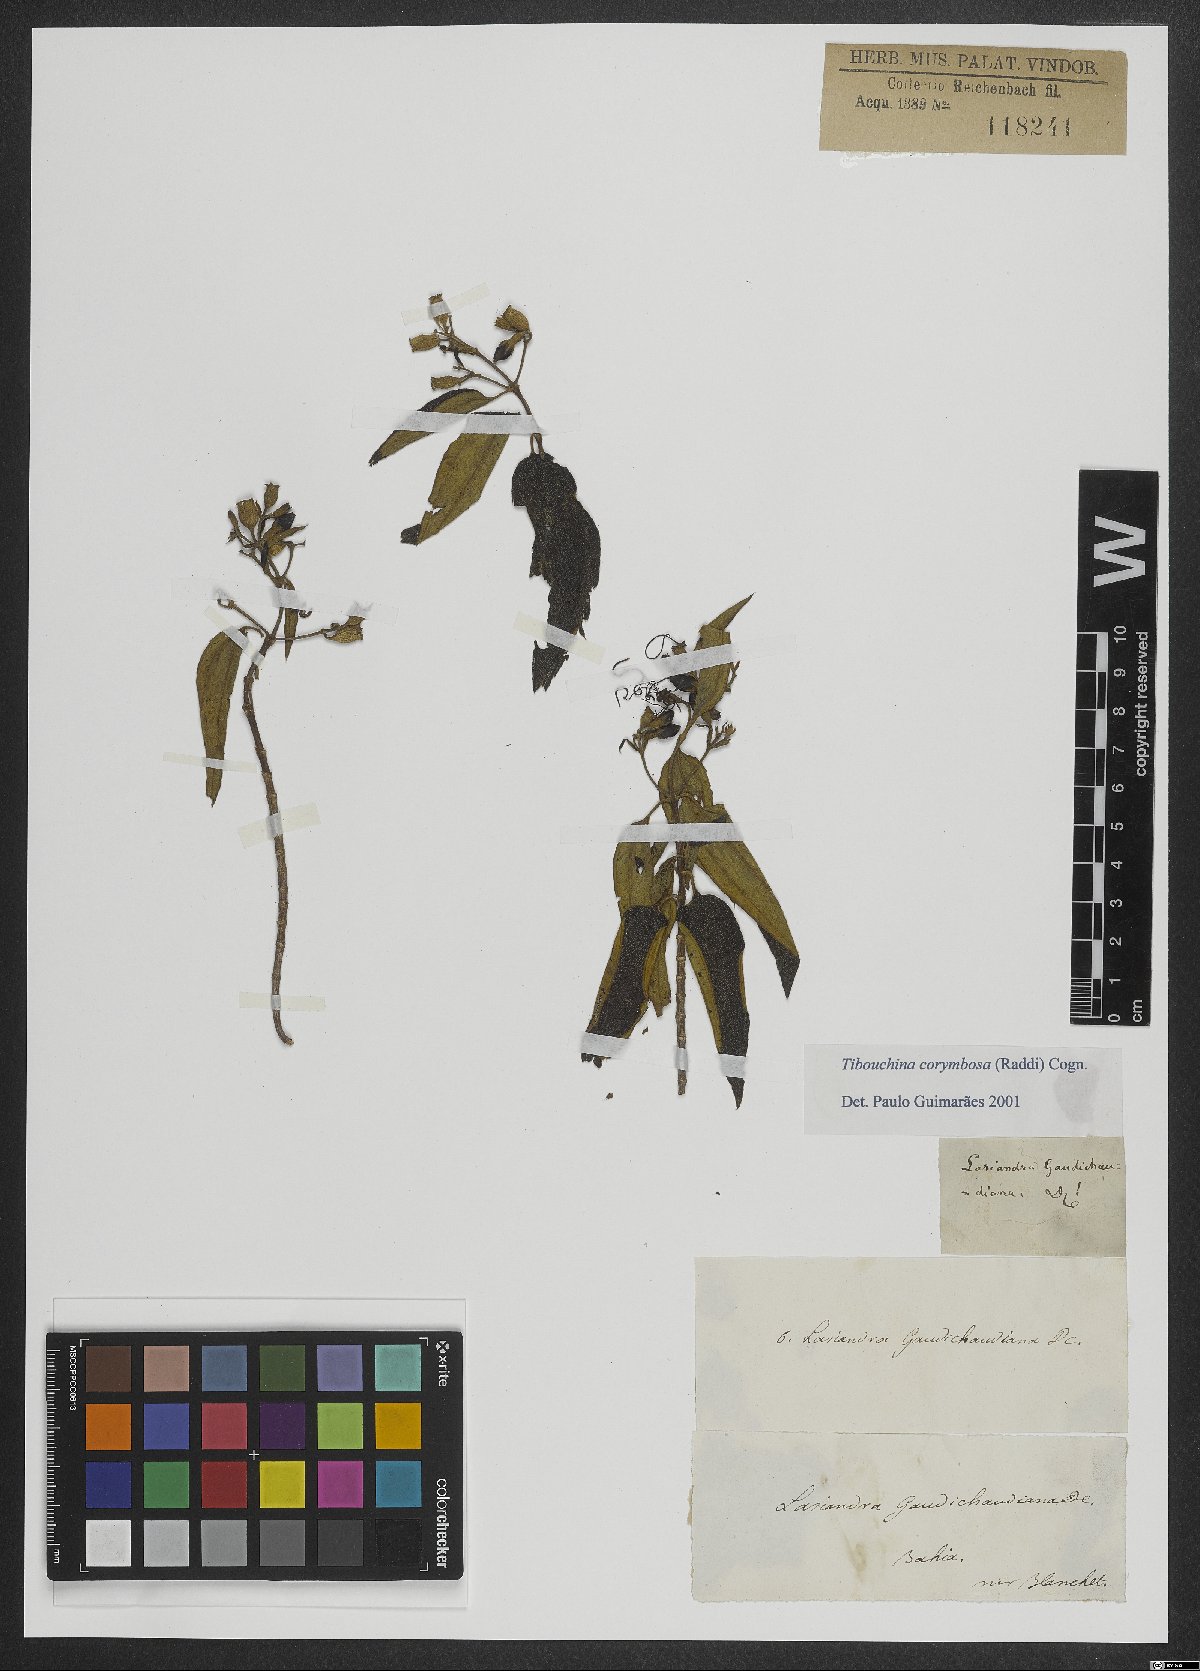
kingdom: Plantae
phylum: Tracheophyta
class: Magnoliopsida
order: Myrtales
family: Melastomataceae
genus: Pleroma
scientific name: Pleroma vimineum
